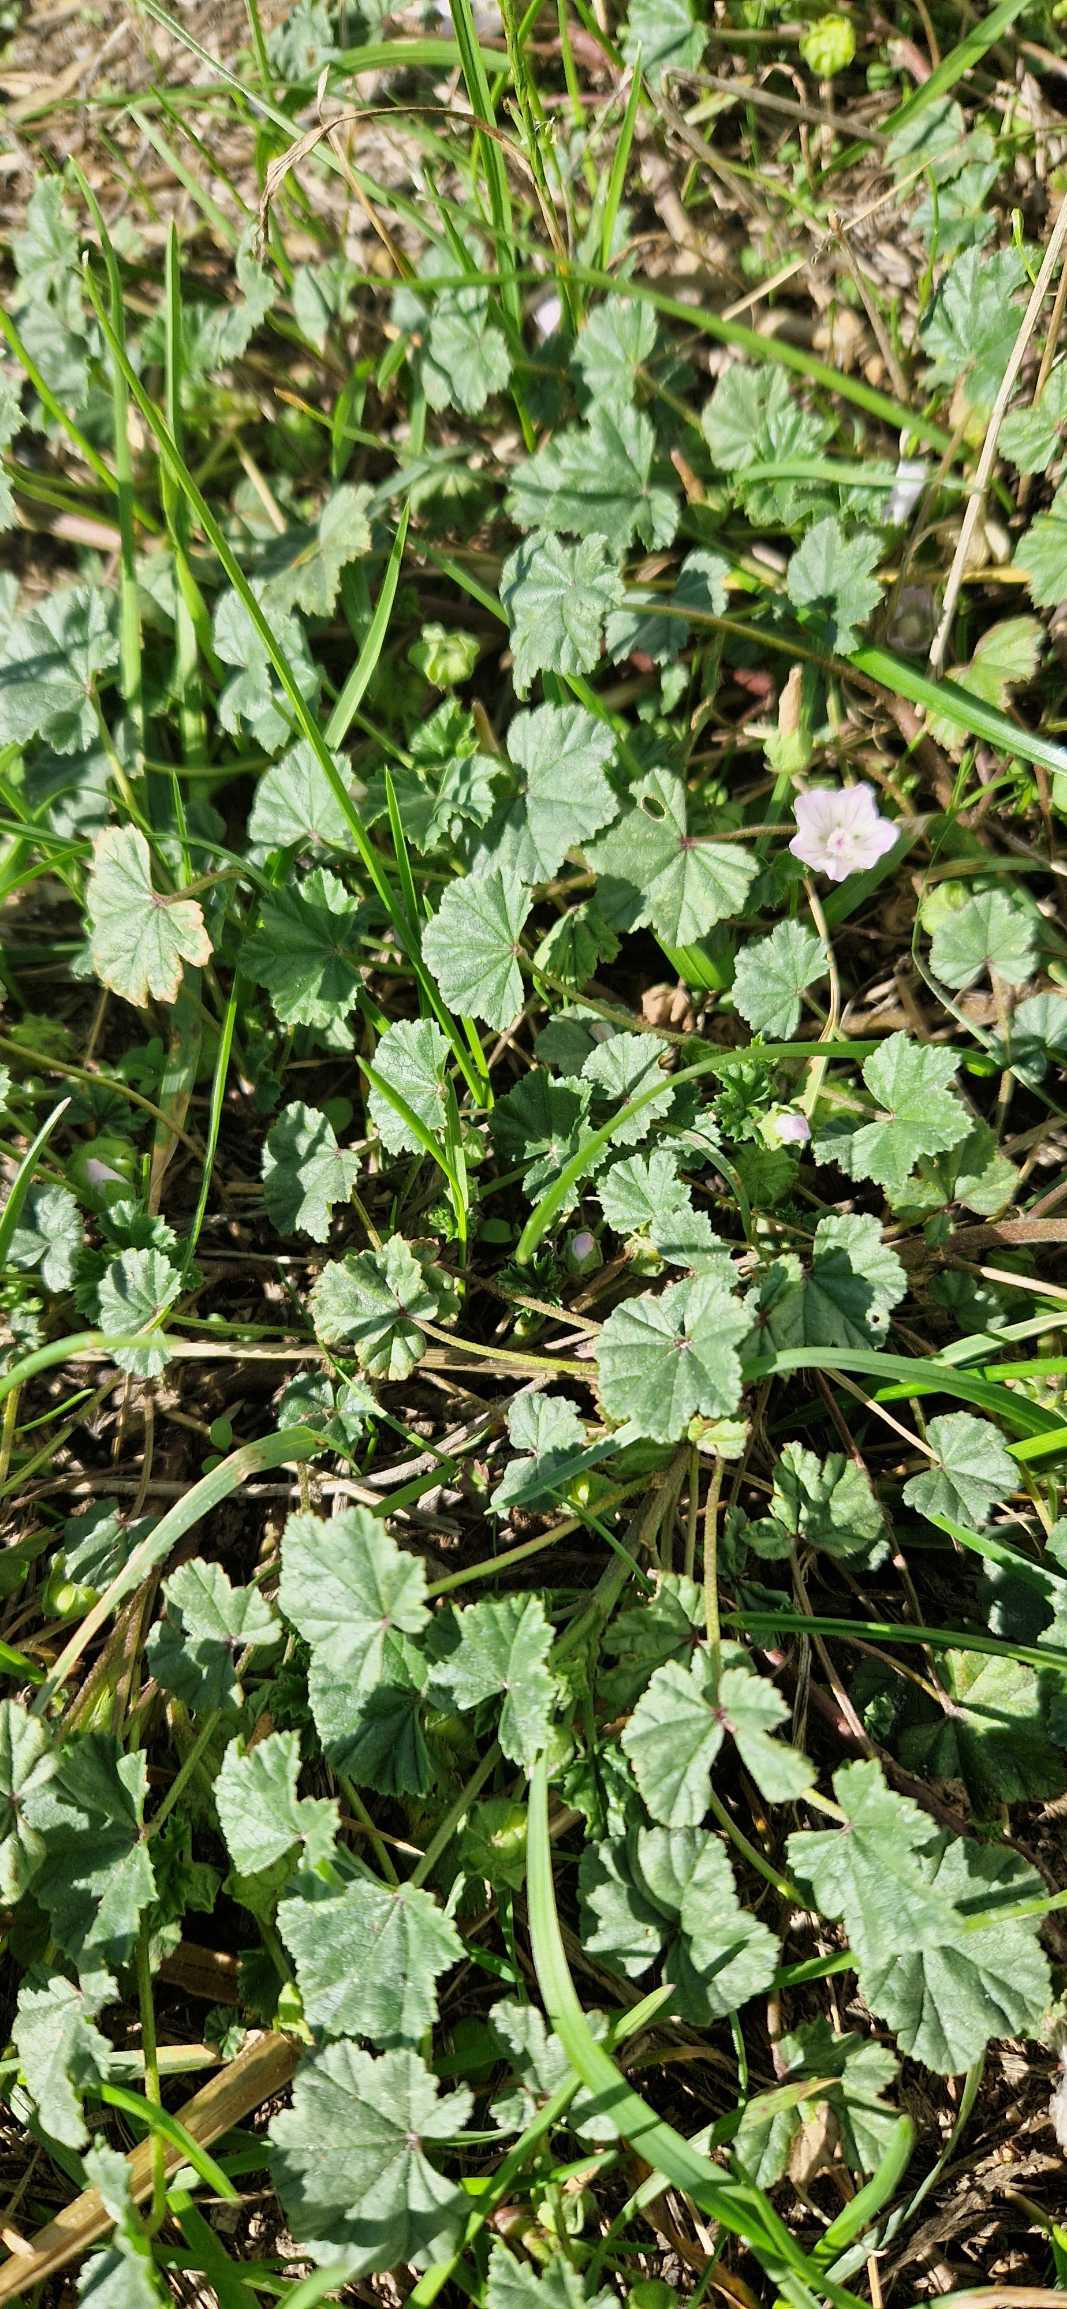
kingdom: Plantae
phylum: Tracheophyta
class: Magnoliopsida
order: Malvales
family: Malvaceae
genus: Malva
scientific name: Malva neglecta
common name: Rundbladet katost
